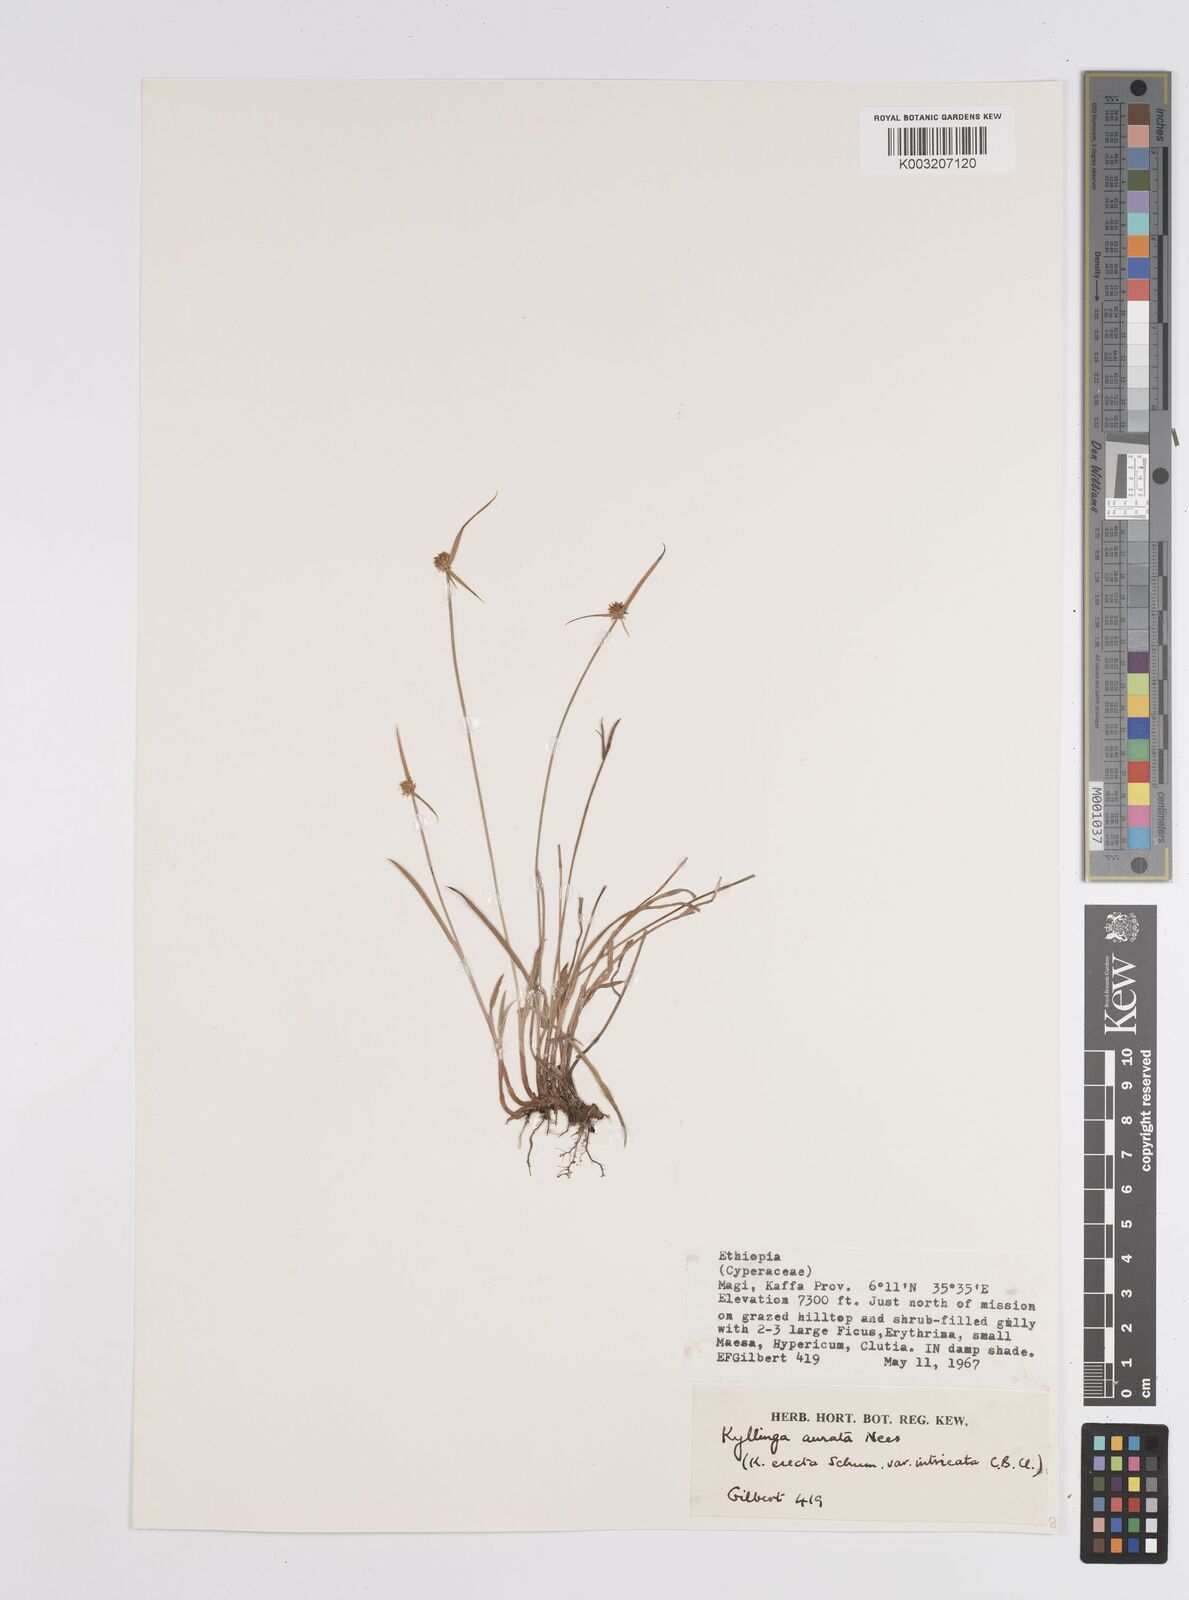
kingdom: Plantae
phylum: Tracheophyta
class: Liliopsida
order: Poales
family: Cyperaceae
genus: Cyperus
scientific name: Cyperus
